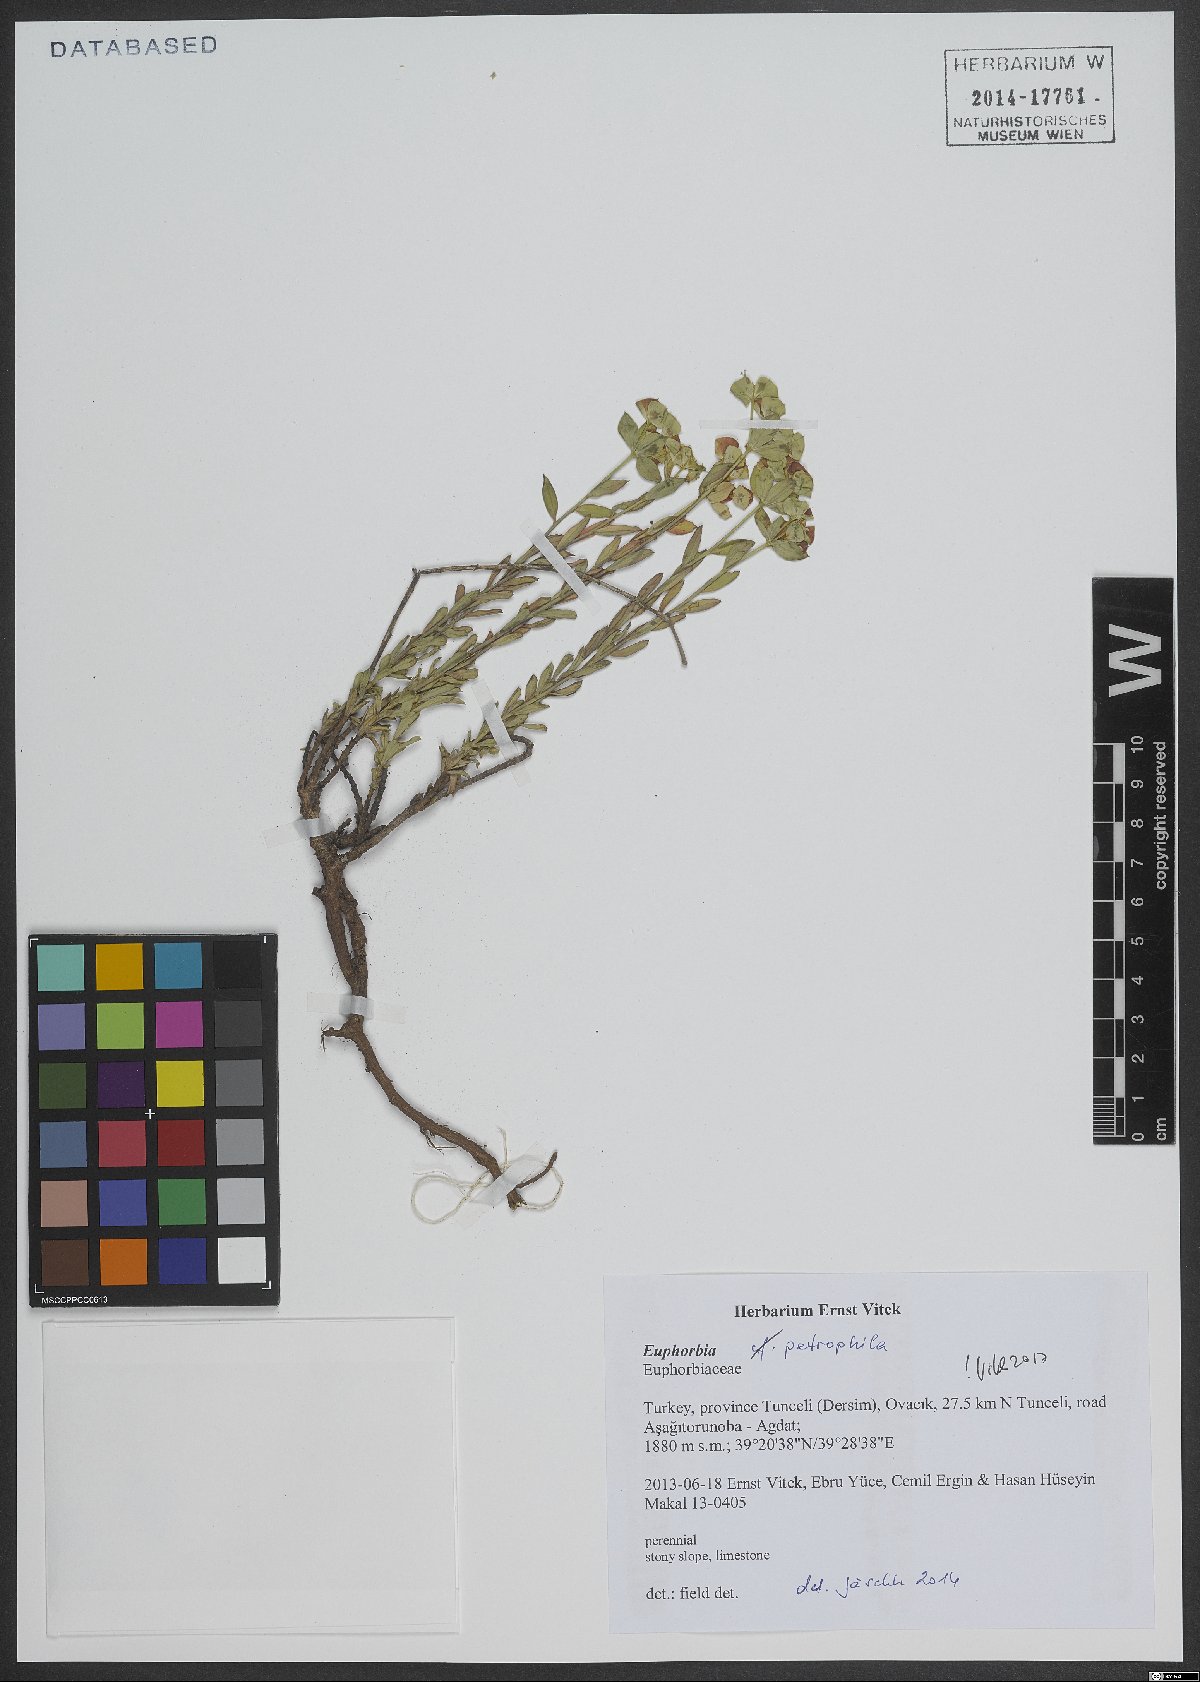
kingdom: Plantae
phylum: Tracheophyta
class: Magnoliopsida
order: Malpighiales
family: Euphorbiaceae
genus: Euphorbia
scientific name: Euphorbia petrophila
